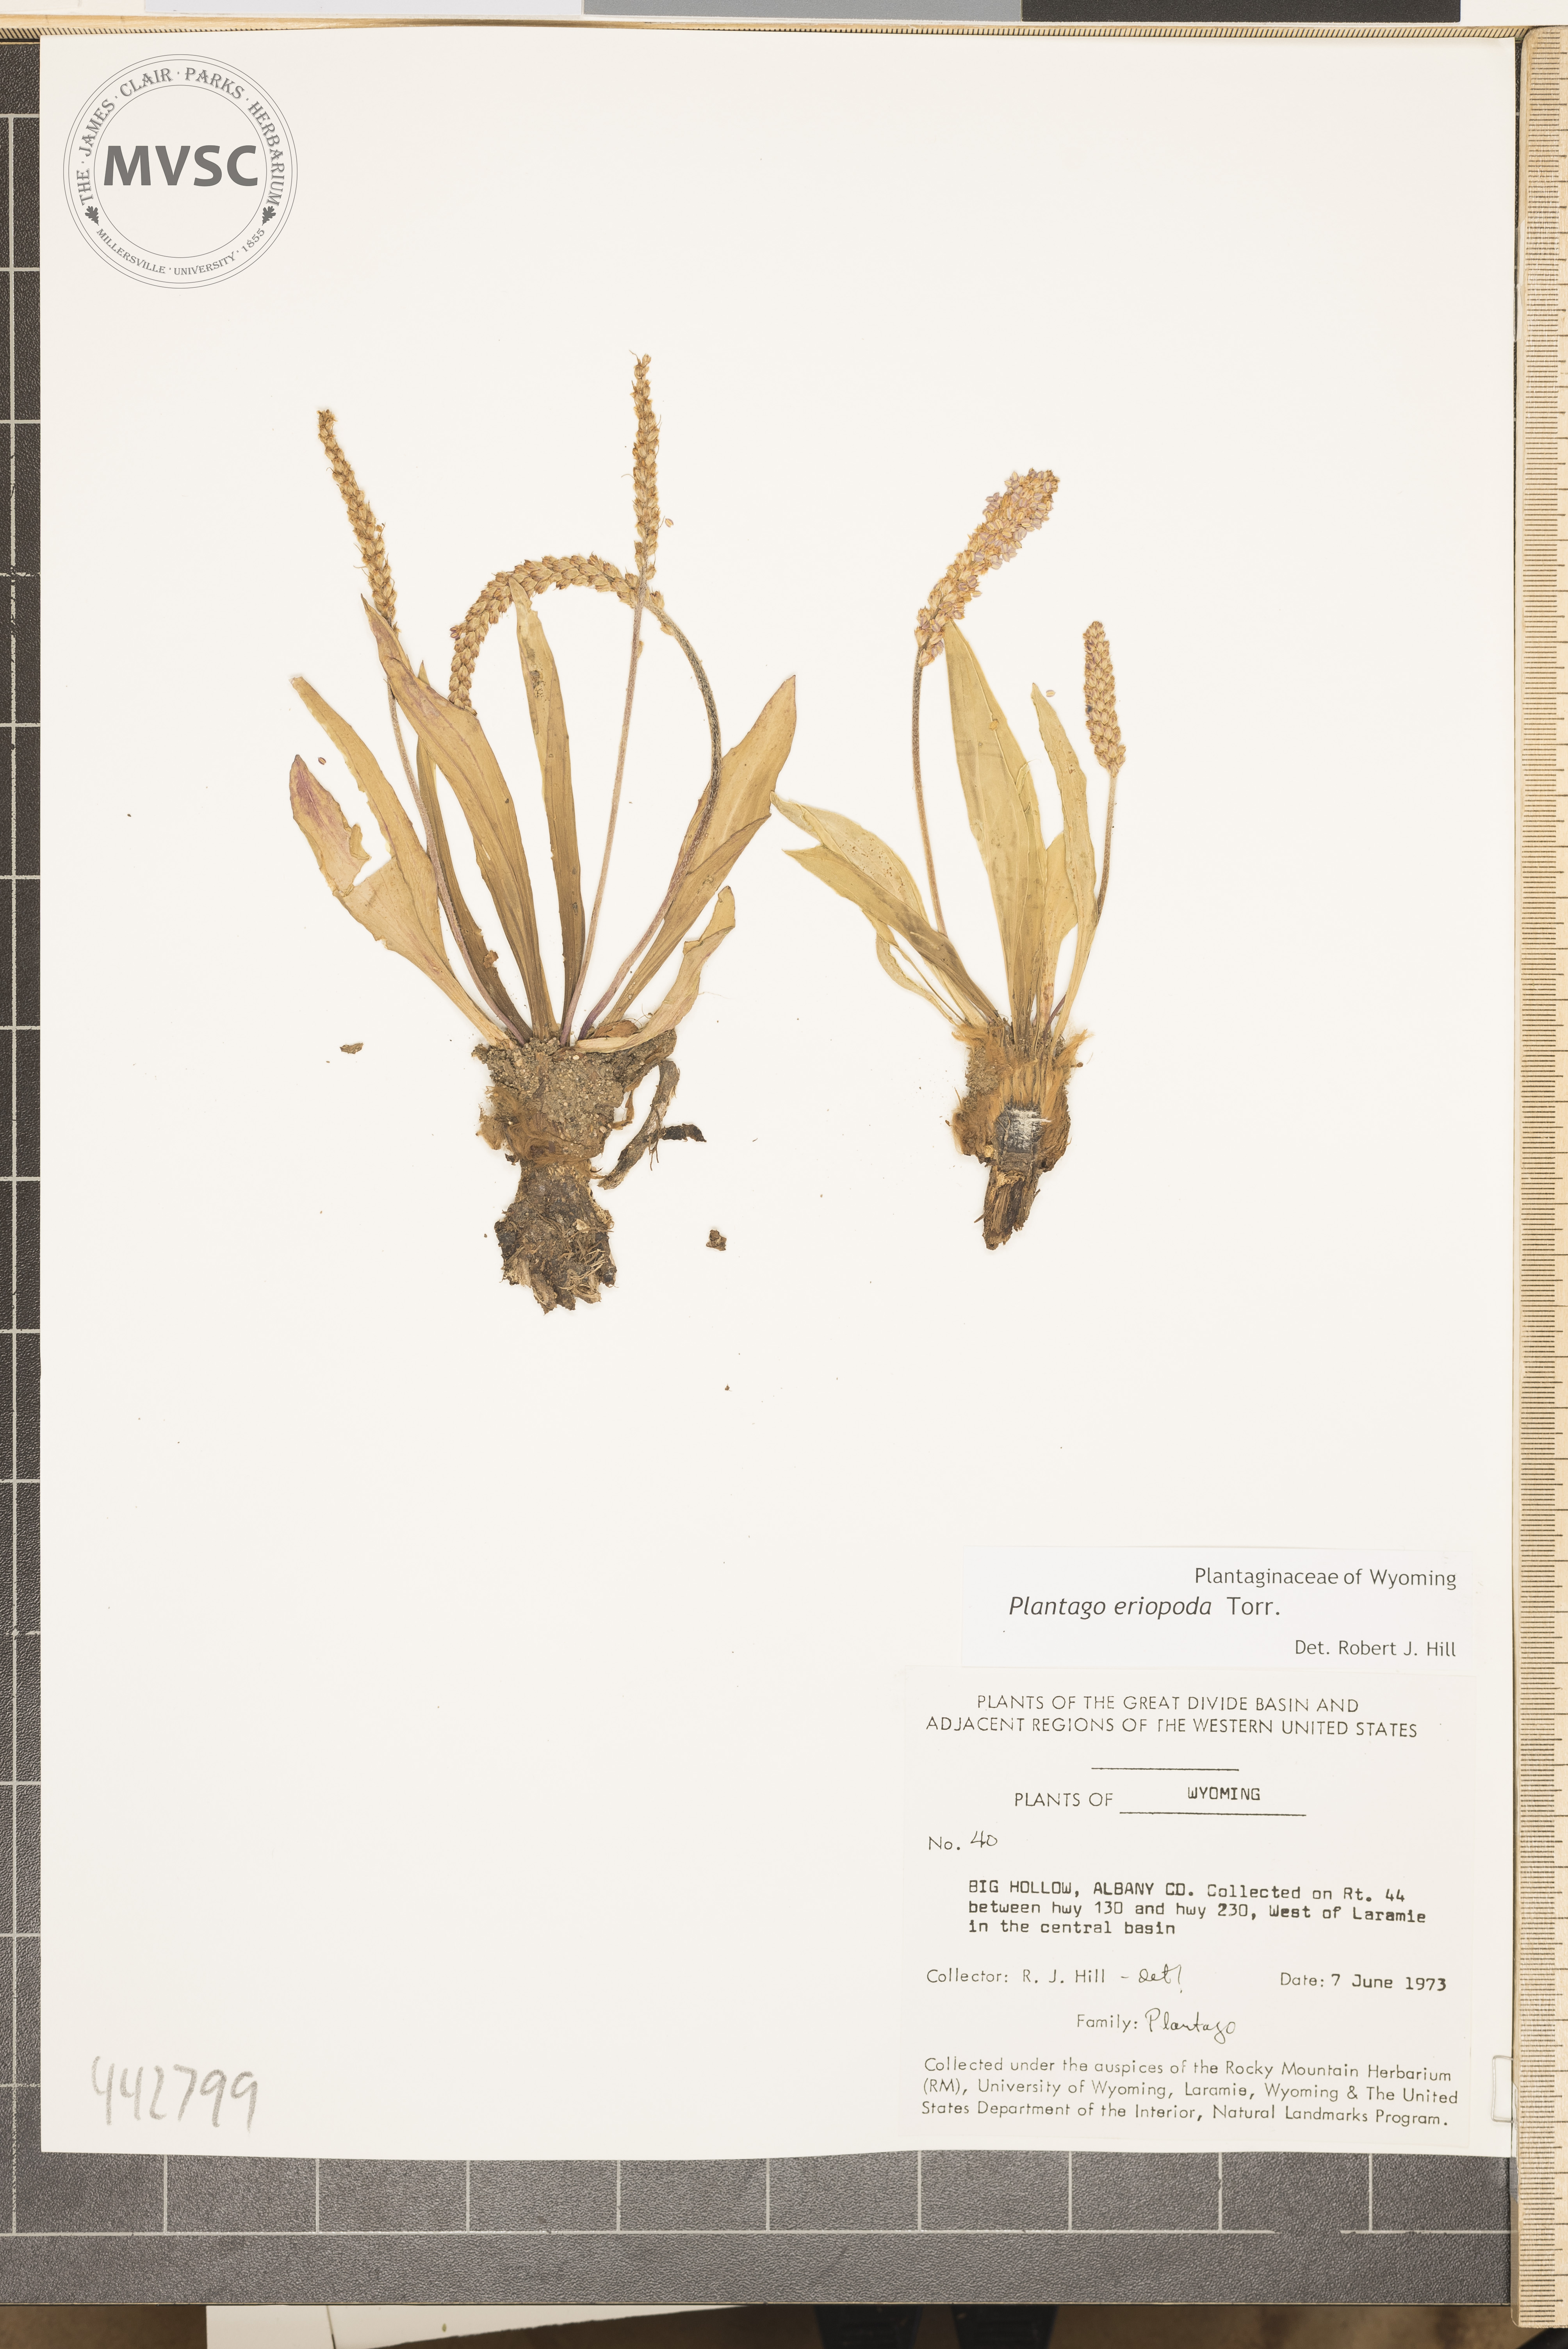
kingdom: Plantae
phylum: Tracheophyta
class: Magnoliopsida
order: Lamiales
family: Plantaginaceae
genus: Plantago
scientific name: Plantago eriopoda
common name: Alkali plantain
